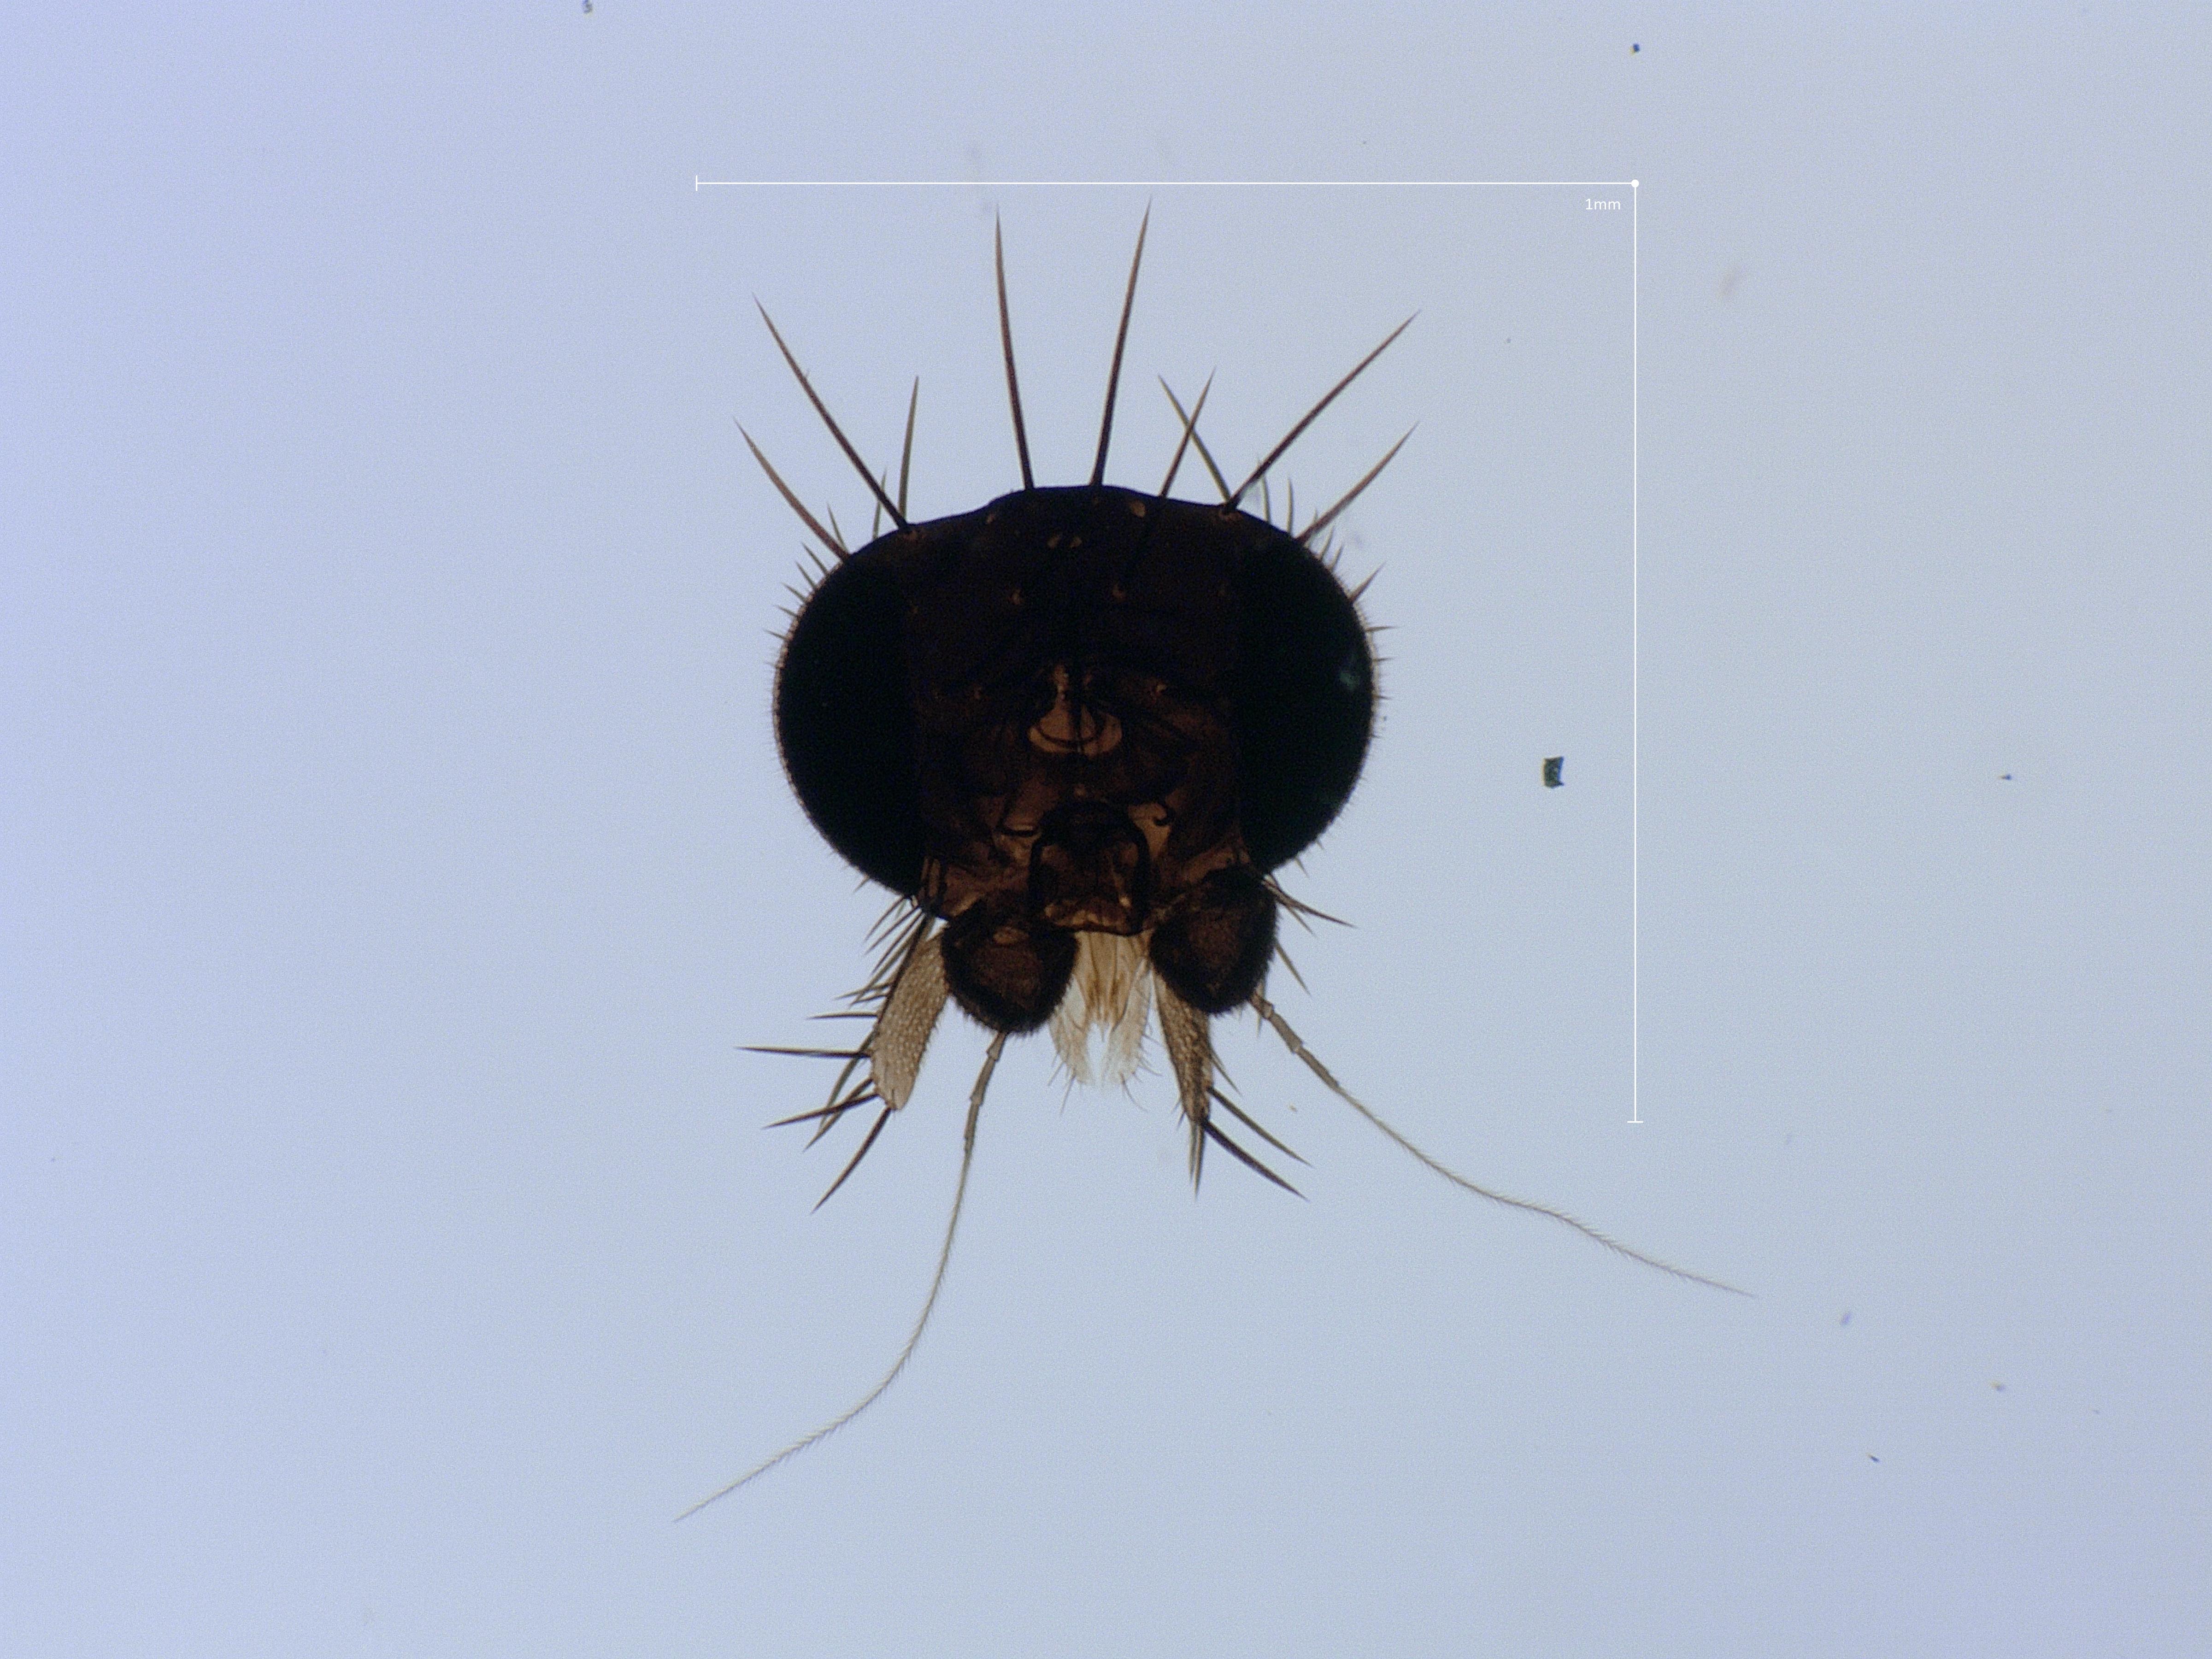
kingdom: Animalia
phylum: Arthropoda
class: Insecta
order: Diptera
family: Phoridae
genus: Megaselia
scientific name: Megaselia tenebricola
